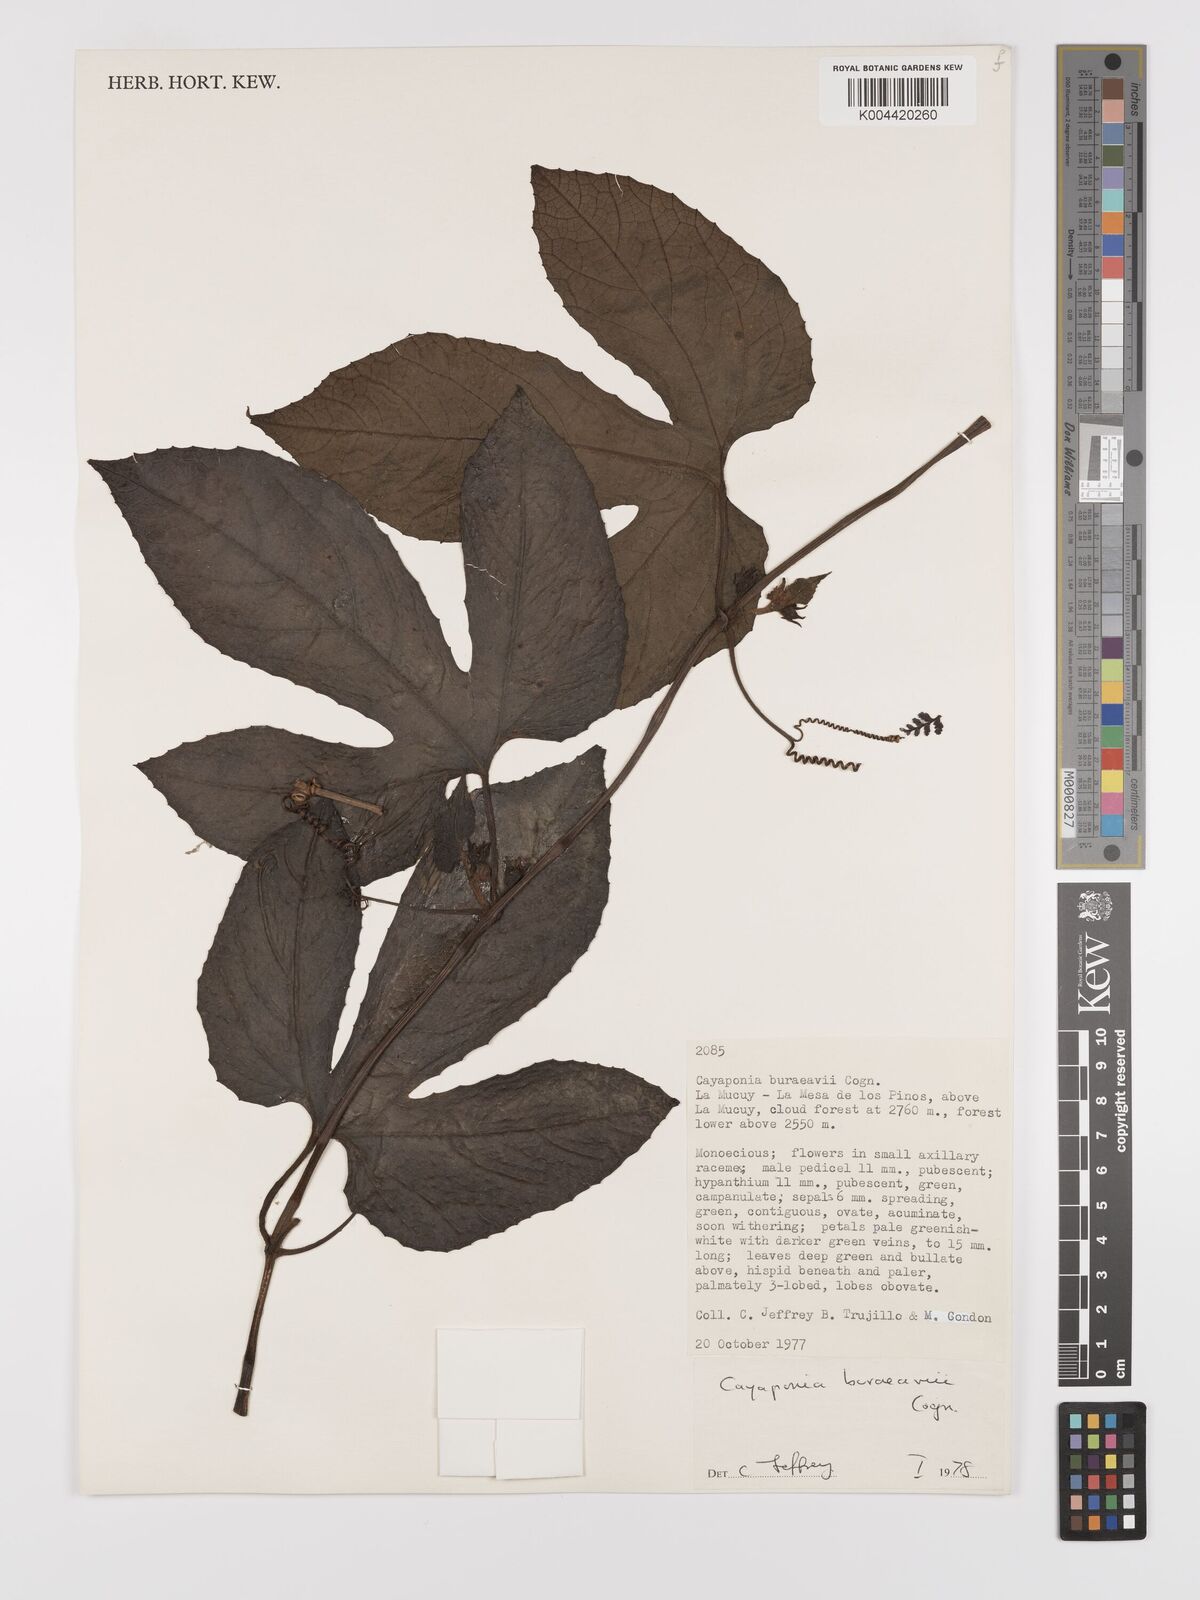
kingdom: Plantae
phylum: Tracheophyta
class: Magnoliopsida
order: Cucurbitales
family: Cucurbitaceae
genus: Cayaponia
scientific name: Cayaponia buraeavii
